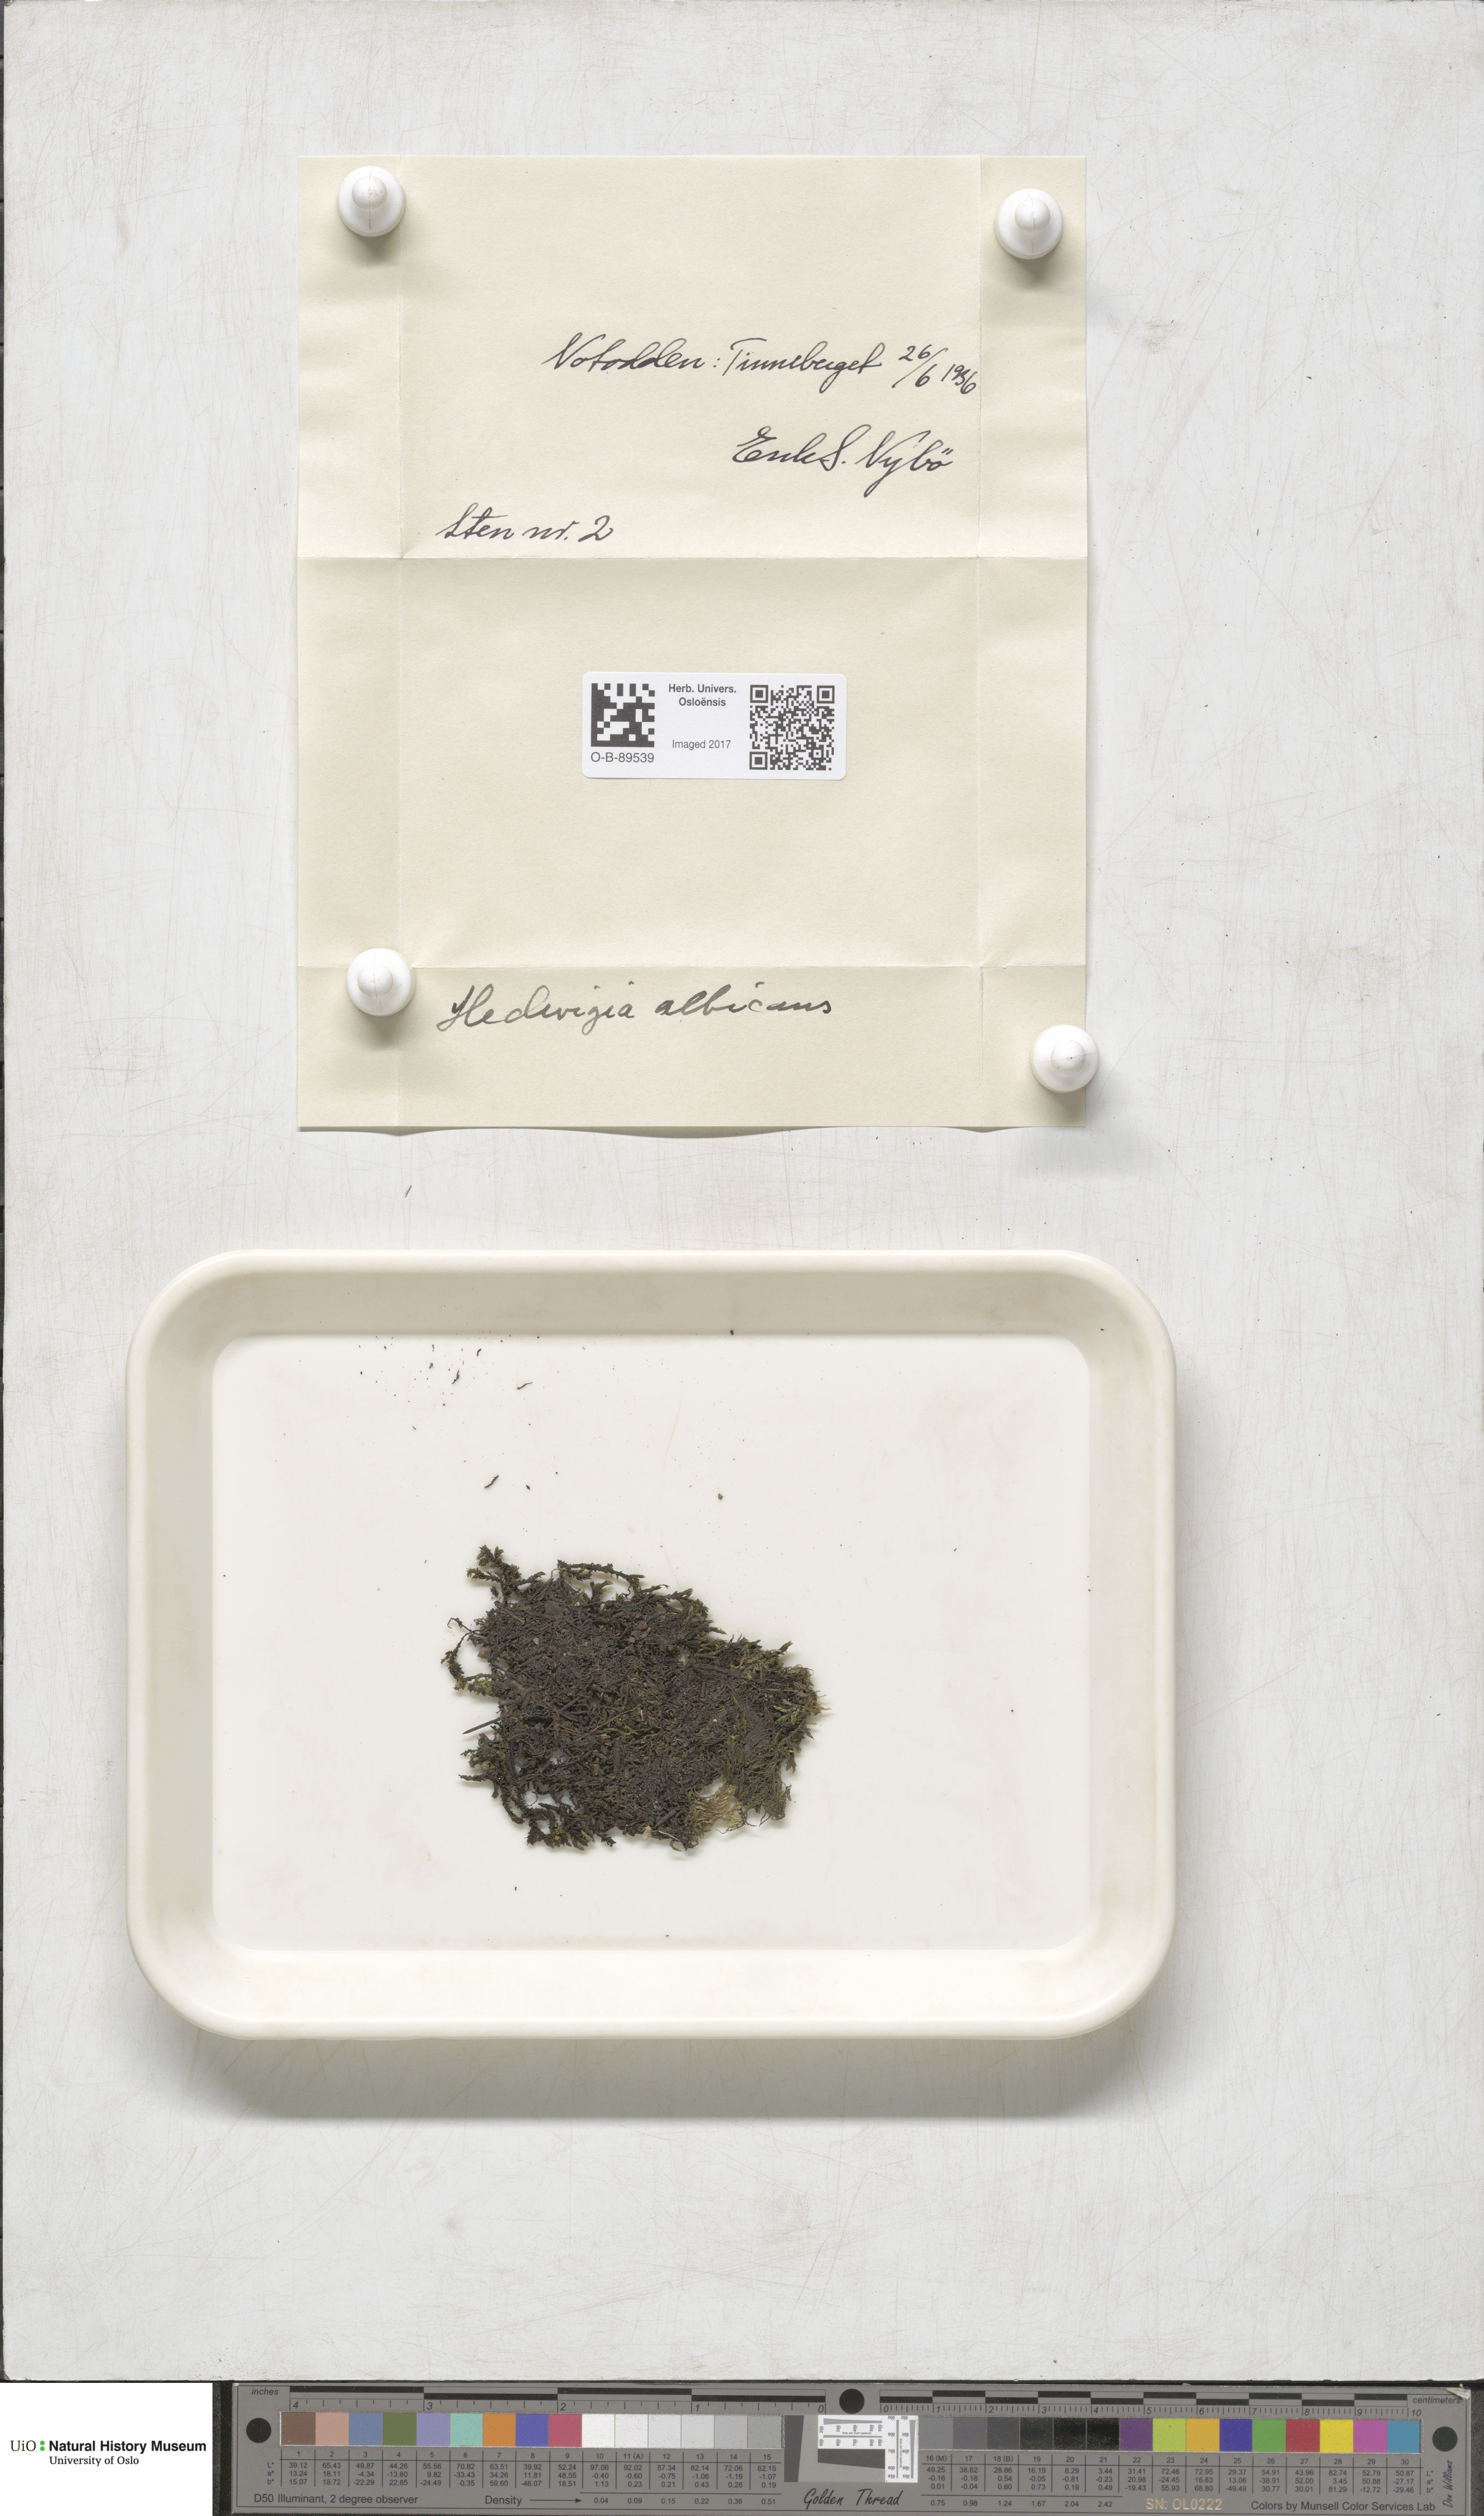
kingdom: Plantae
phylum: Bryophyta
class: Bryopsida
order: Hedwigiales
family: Hedwigiaceae
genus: Hedwigia
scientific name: Hedwigia ciliata
